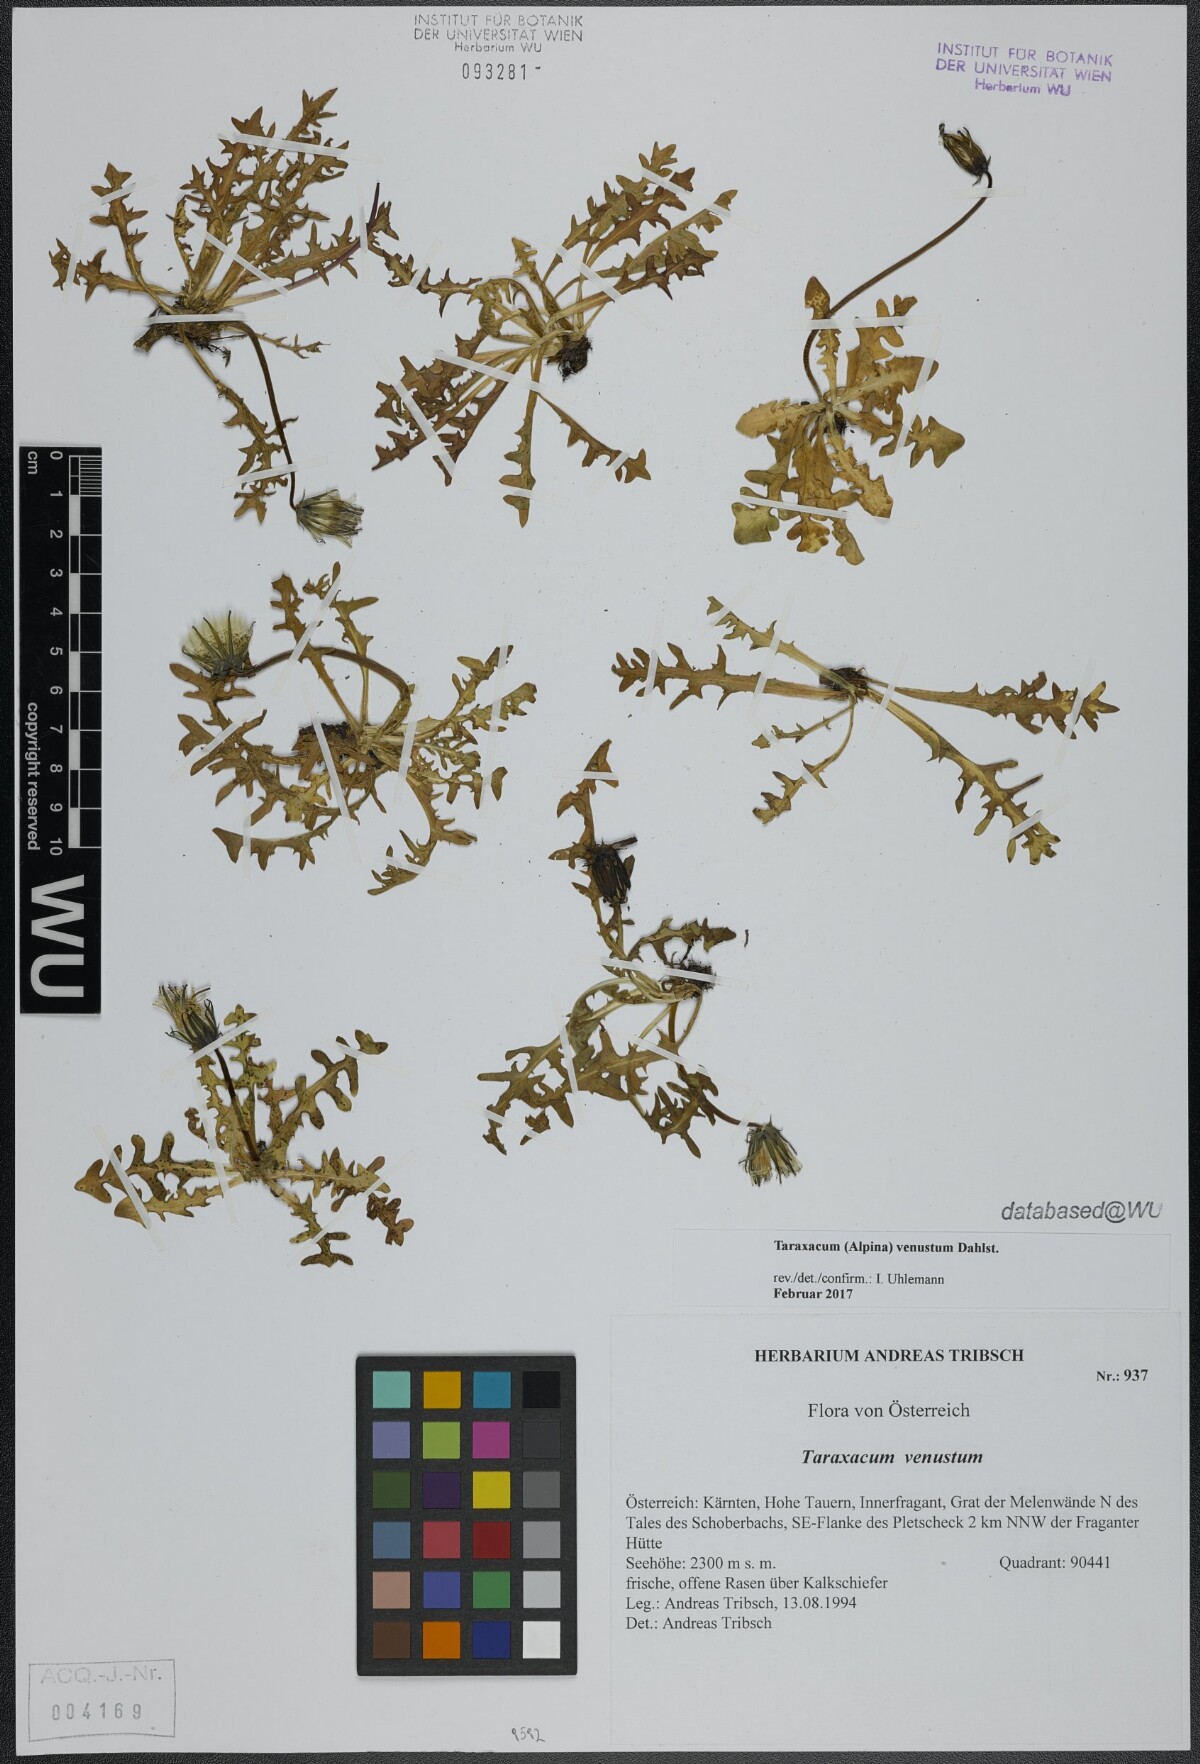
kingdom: Plantae
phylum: Tracheophyta
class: Magnoliopsida
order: Asterales
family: Asteraceae
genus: Taraxacum
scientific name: Taraxacum venustum
